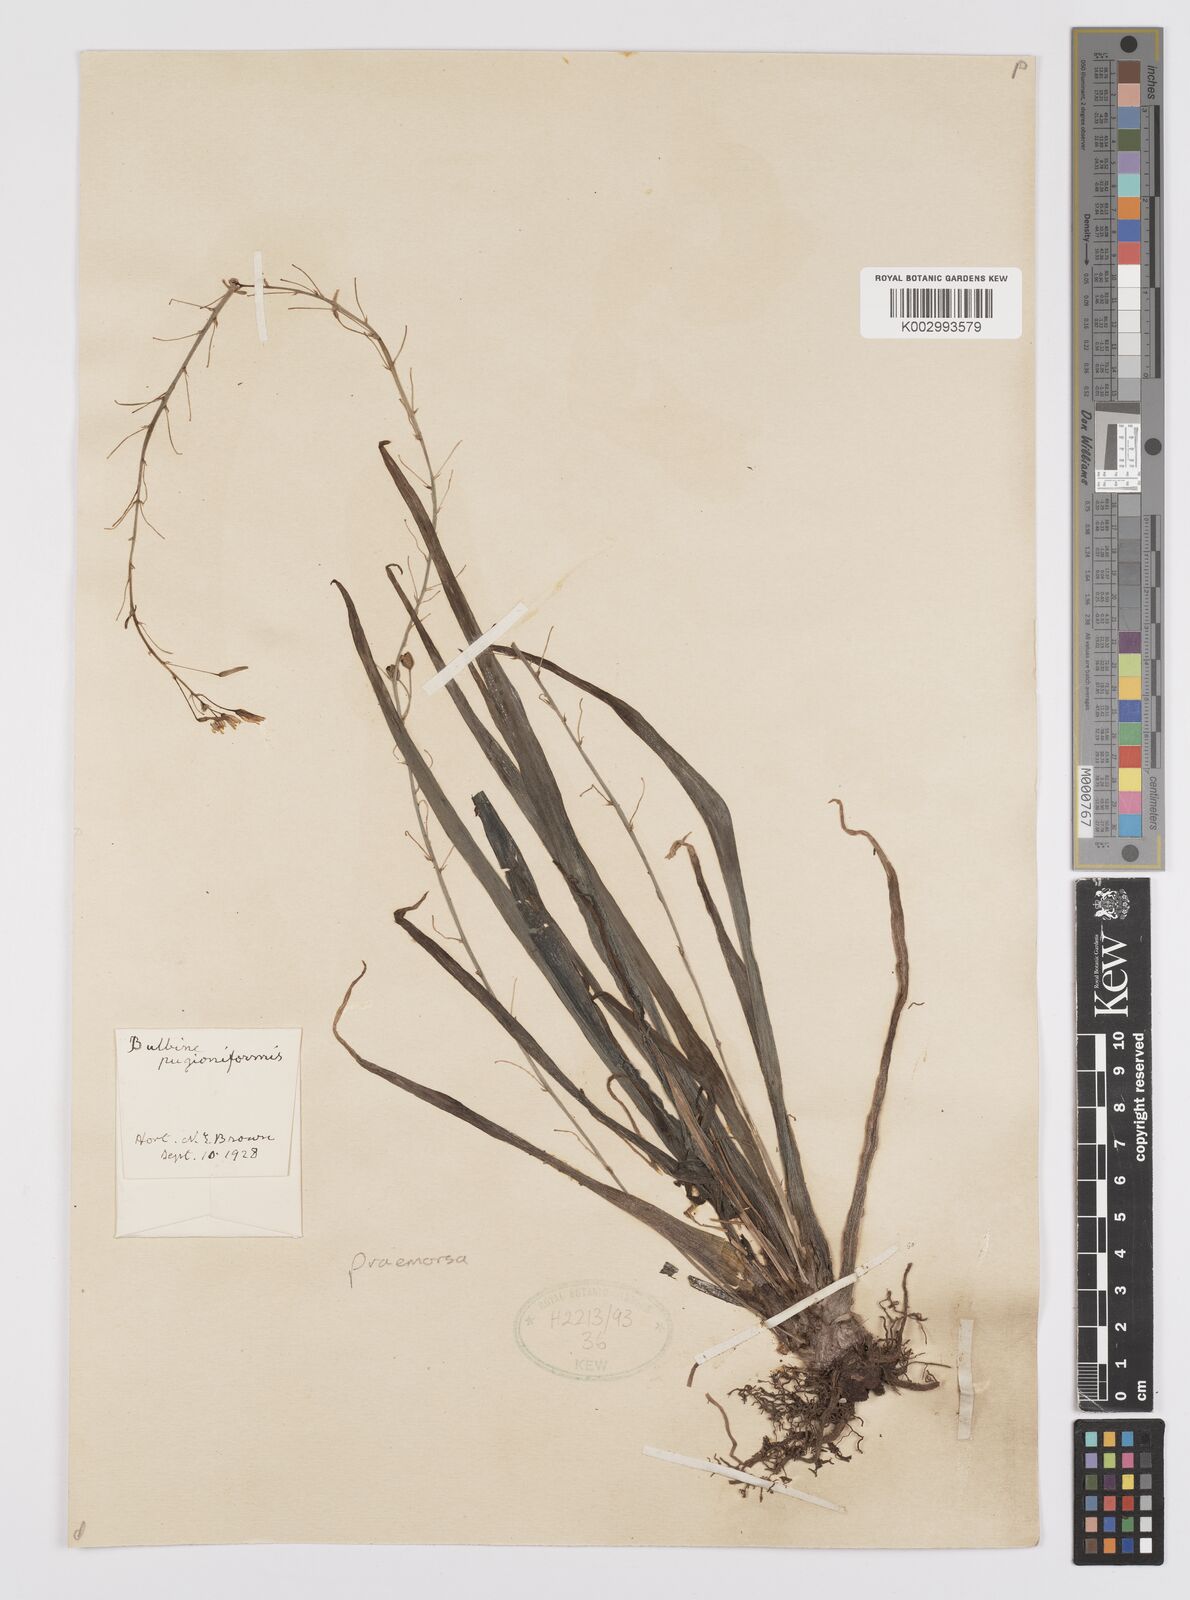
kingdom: Plantae
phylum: Tracheophyta
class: Liliopsida
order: Asparagales
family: Asphodelaceae
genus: Bulbine
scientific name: Bulbine praemorsa
